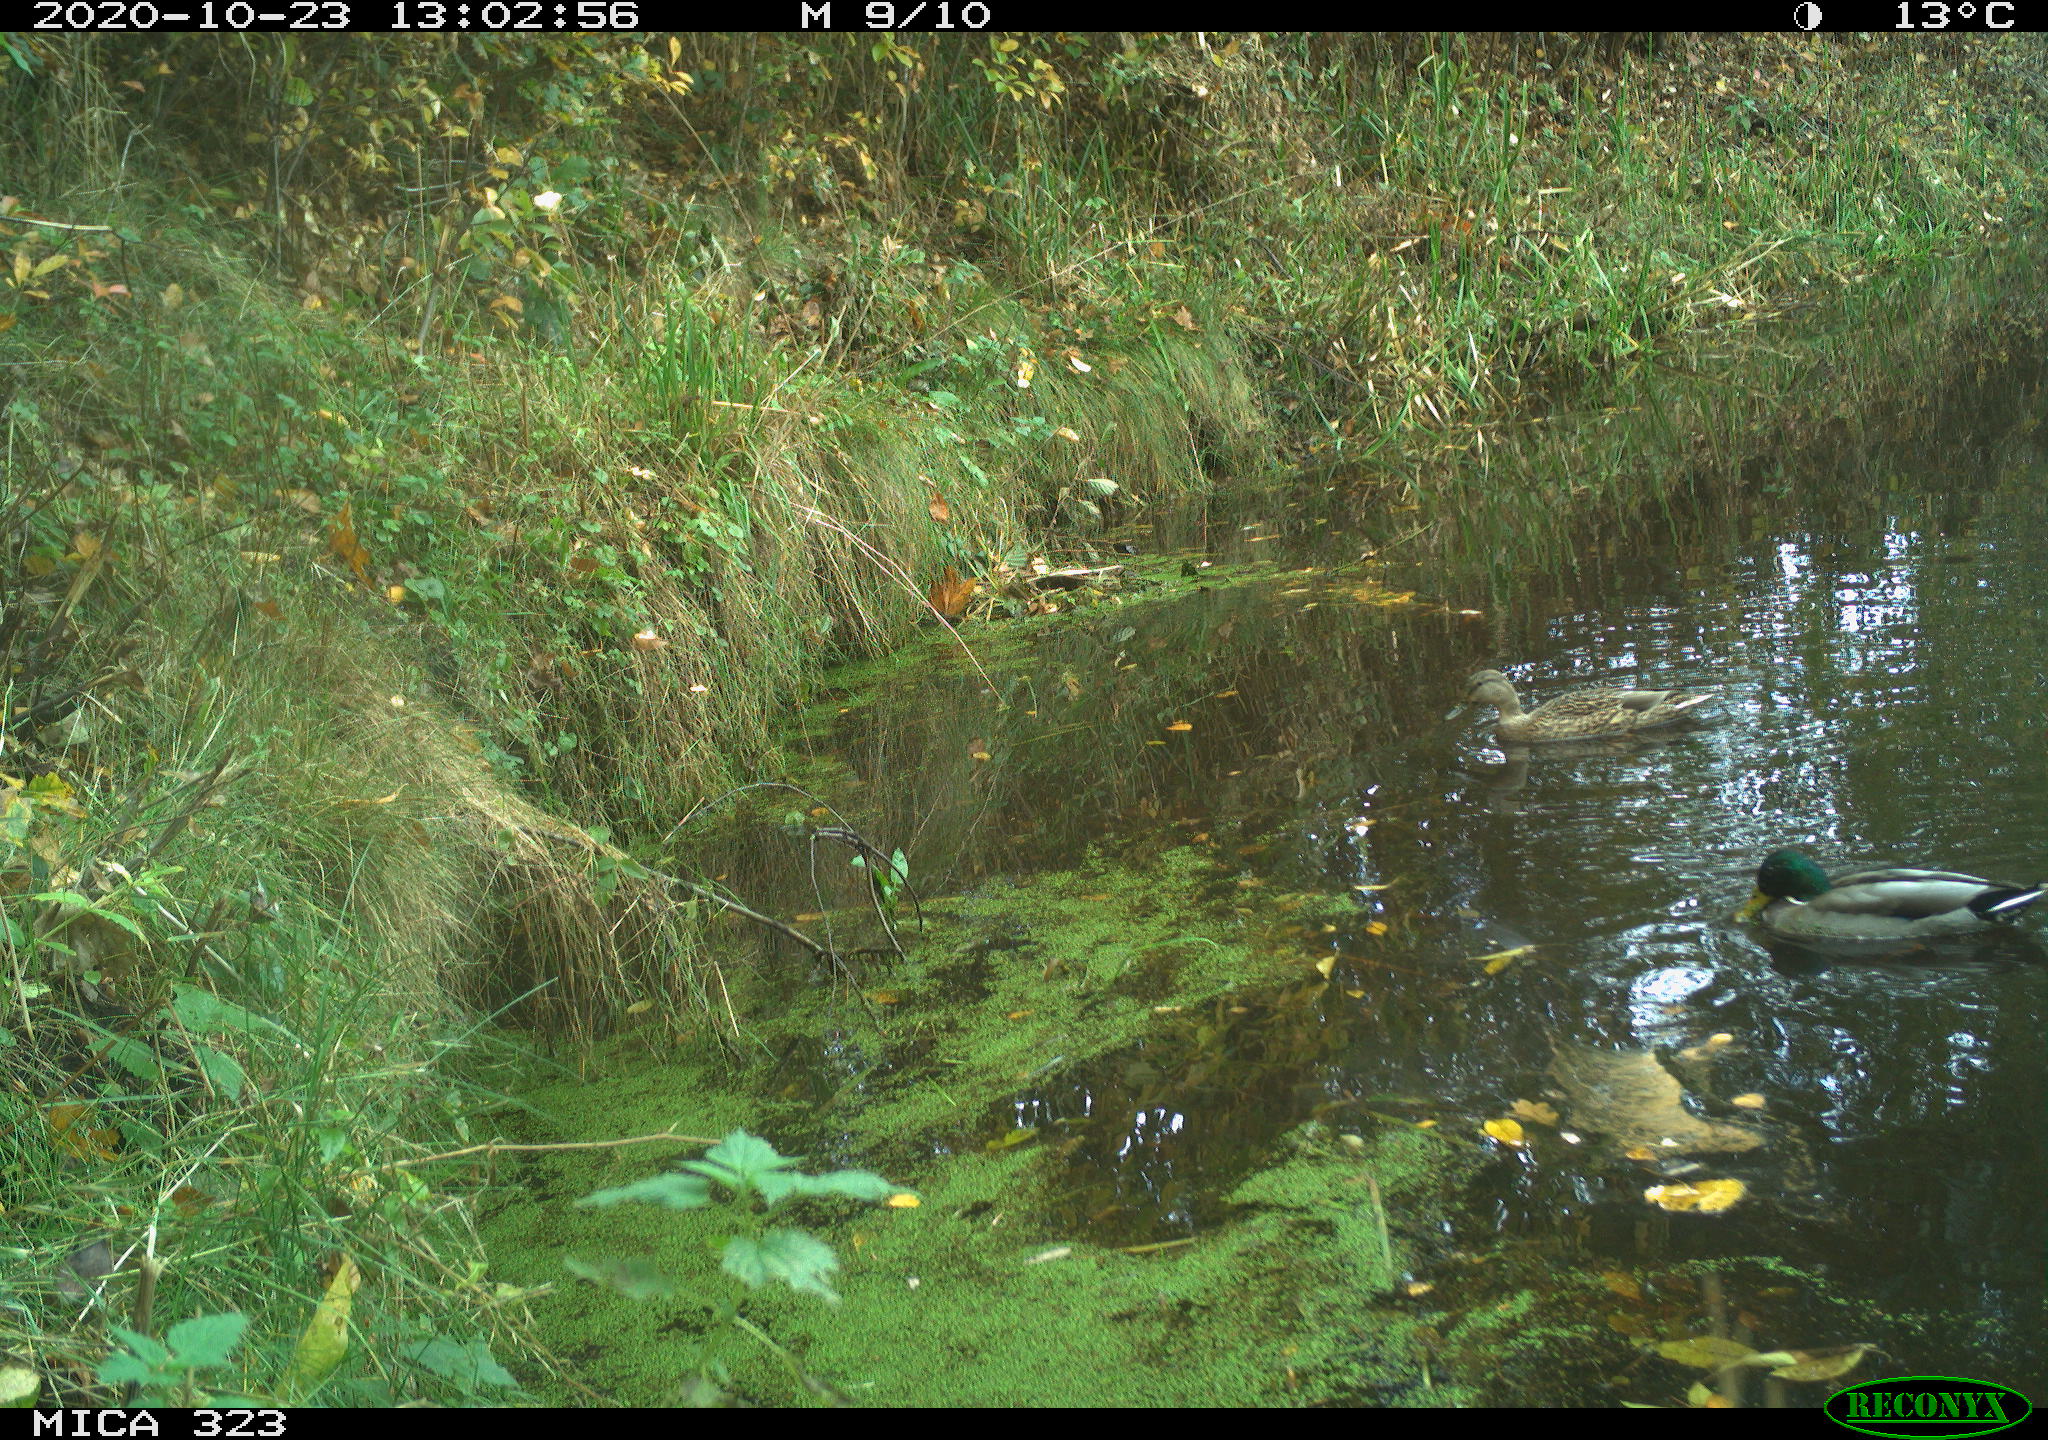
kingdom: Animalia
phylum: Chordata
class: Aves
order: Anseriformes
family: Anatidae
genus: Anas
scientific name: Anas platyrhynchos
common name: Mallard
